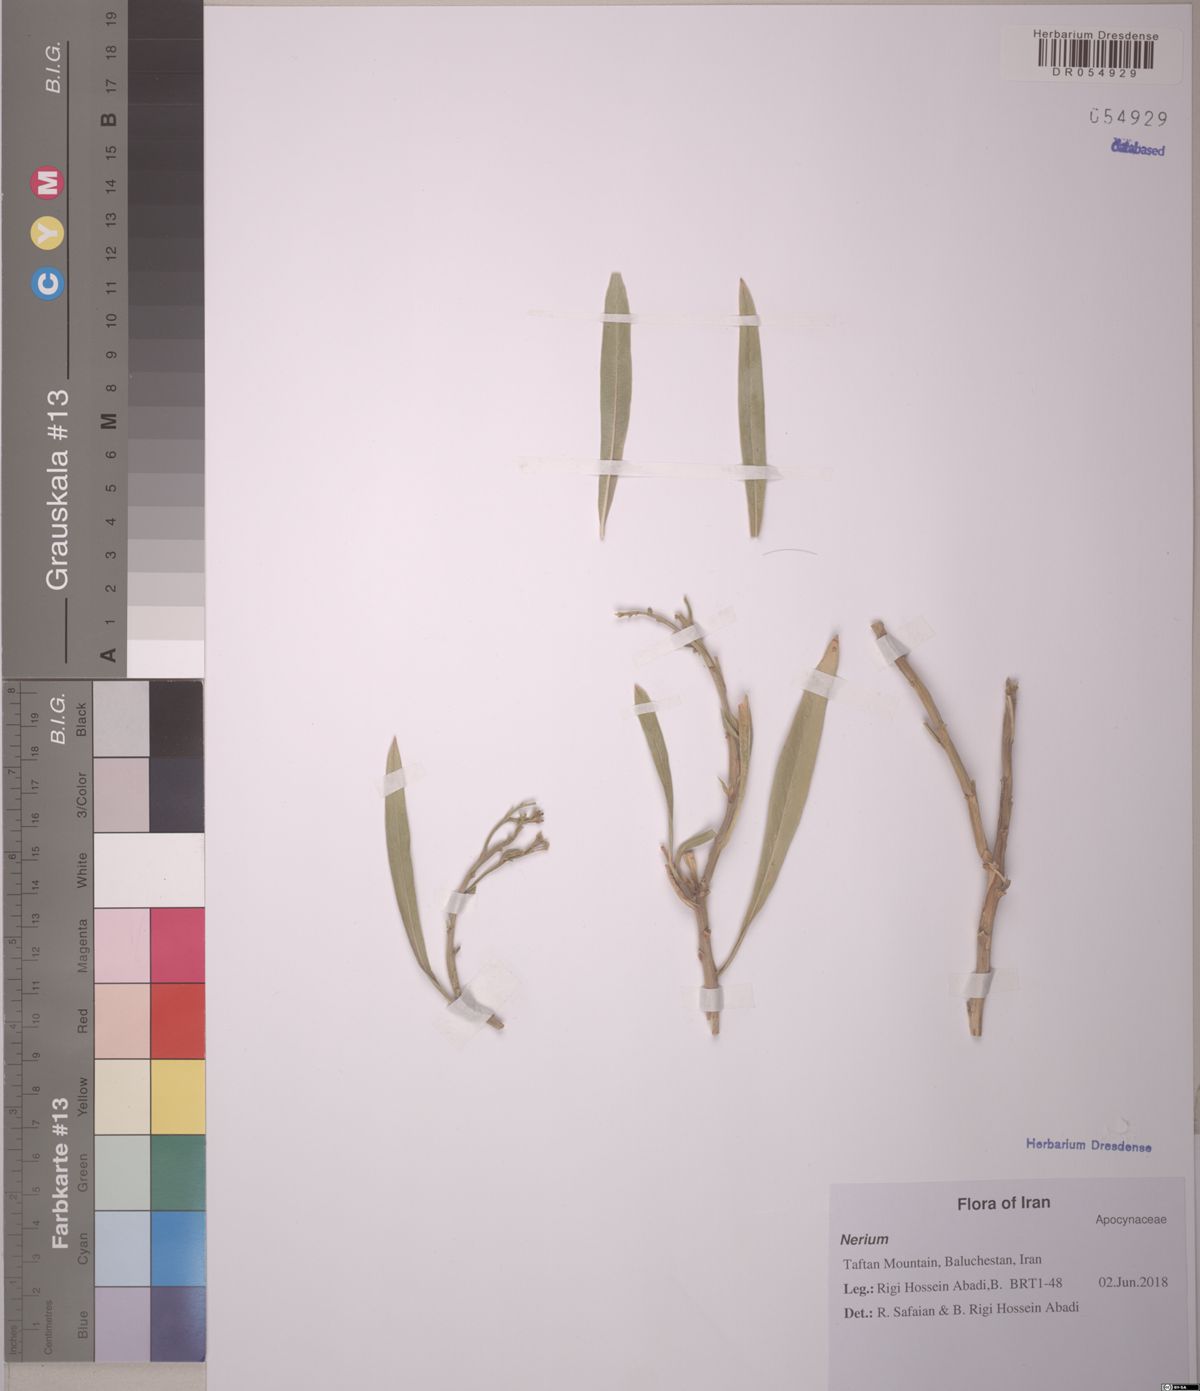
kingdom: Plantae
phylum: Tracheophyta
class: Magnoliopsida
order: Gentianales
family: Apocynaceae
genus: Rhazya
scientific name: Rhazya stricta
